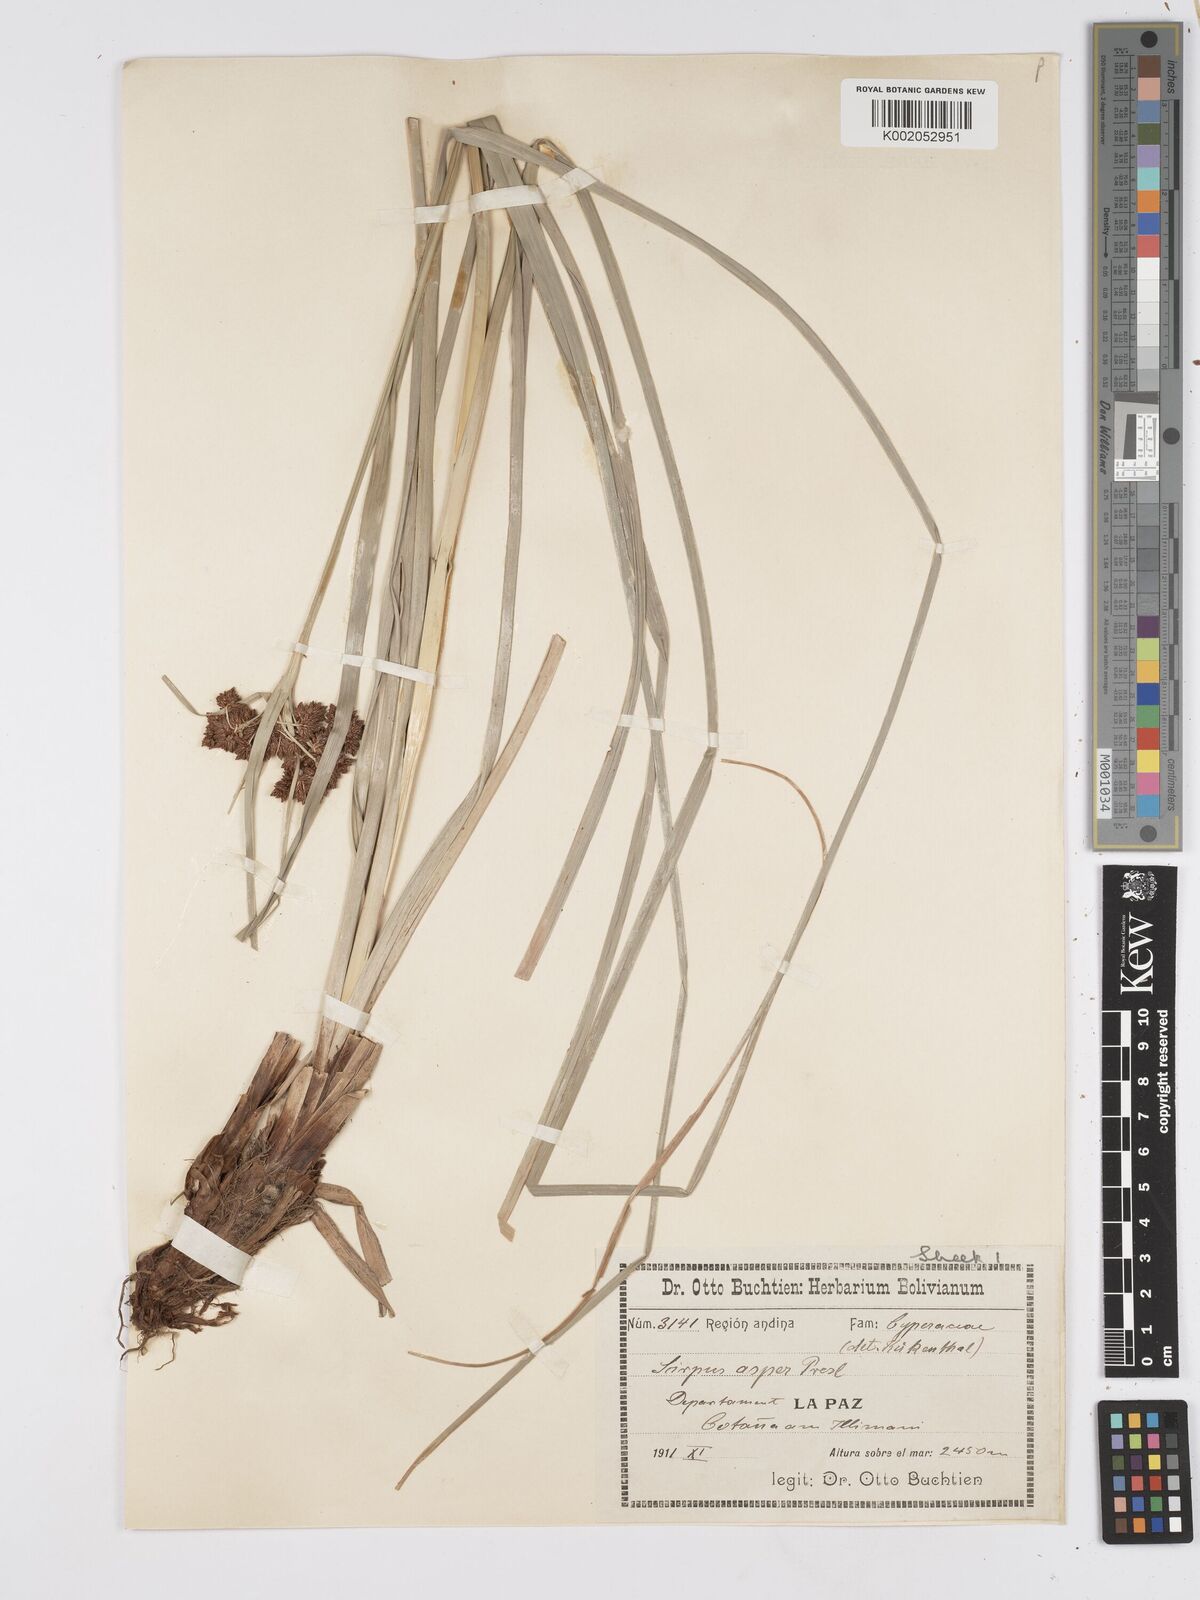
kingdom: Plantae
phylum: Tracheophyta
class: Liliopsida
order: Poales
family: Cyperaceae
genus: Rhodoscirpus
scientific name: Rhodoscirpus asper
